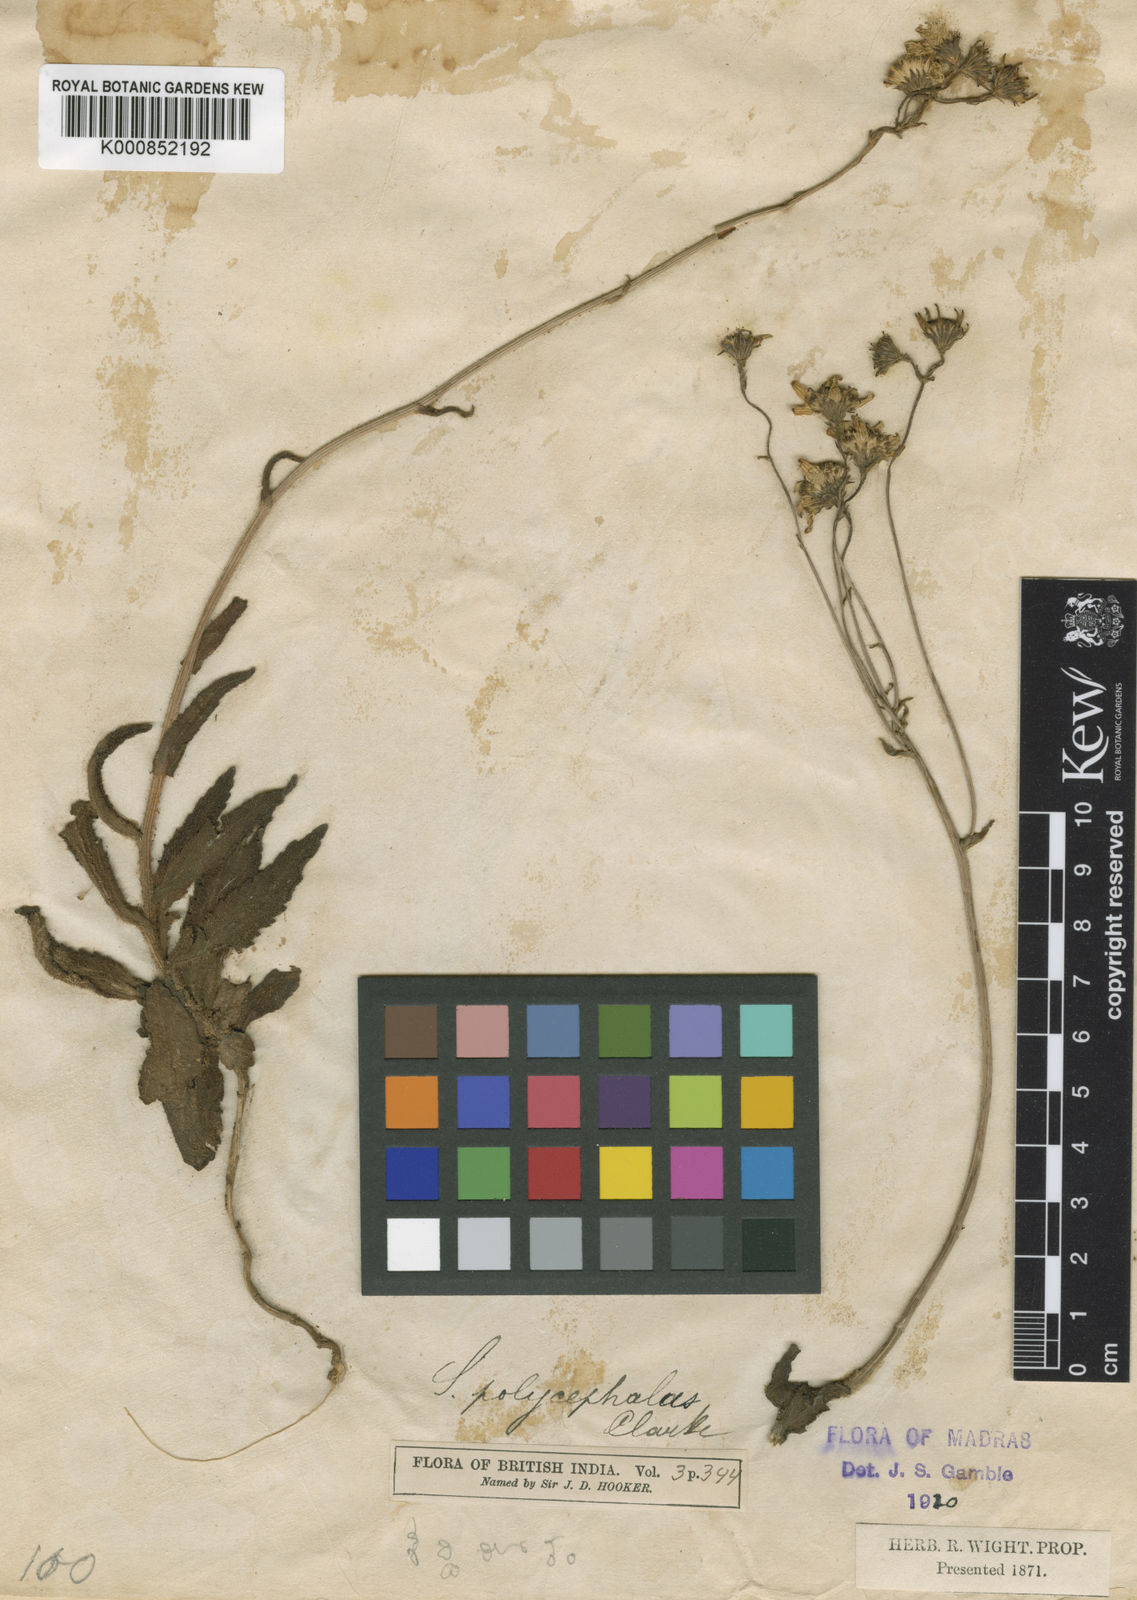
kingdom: Plantae
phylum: Tracheophyta
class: Magnoliopsida
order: Asterales
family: Asteraceae
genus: Senecio
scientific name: Senecio multiceps
